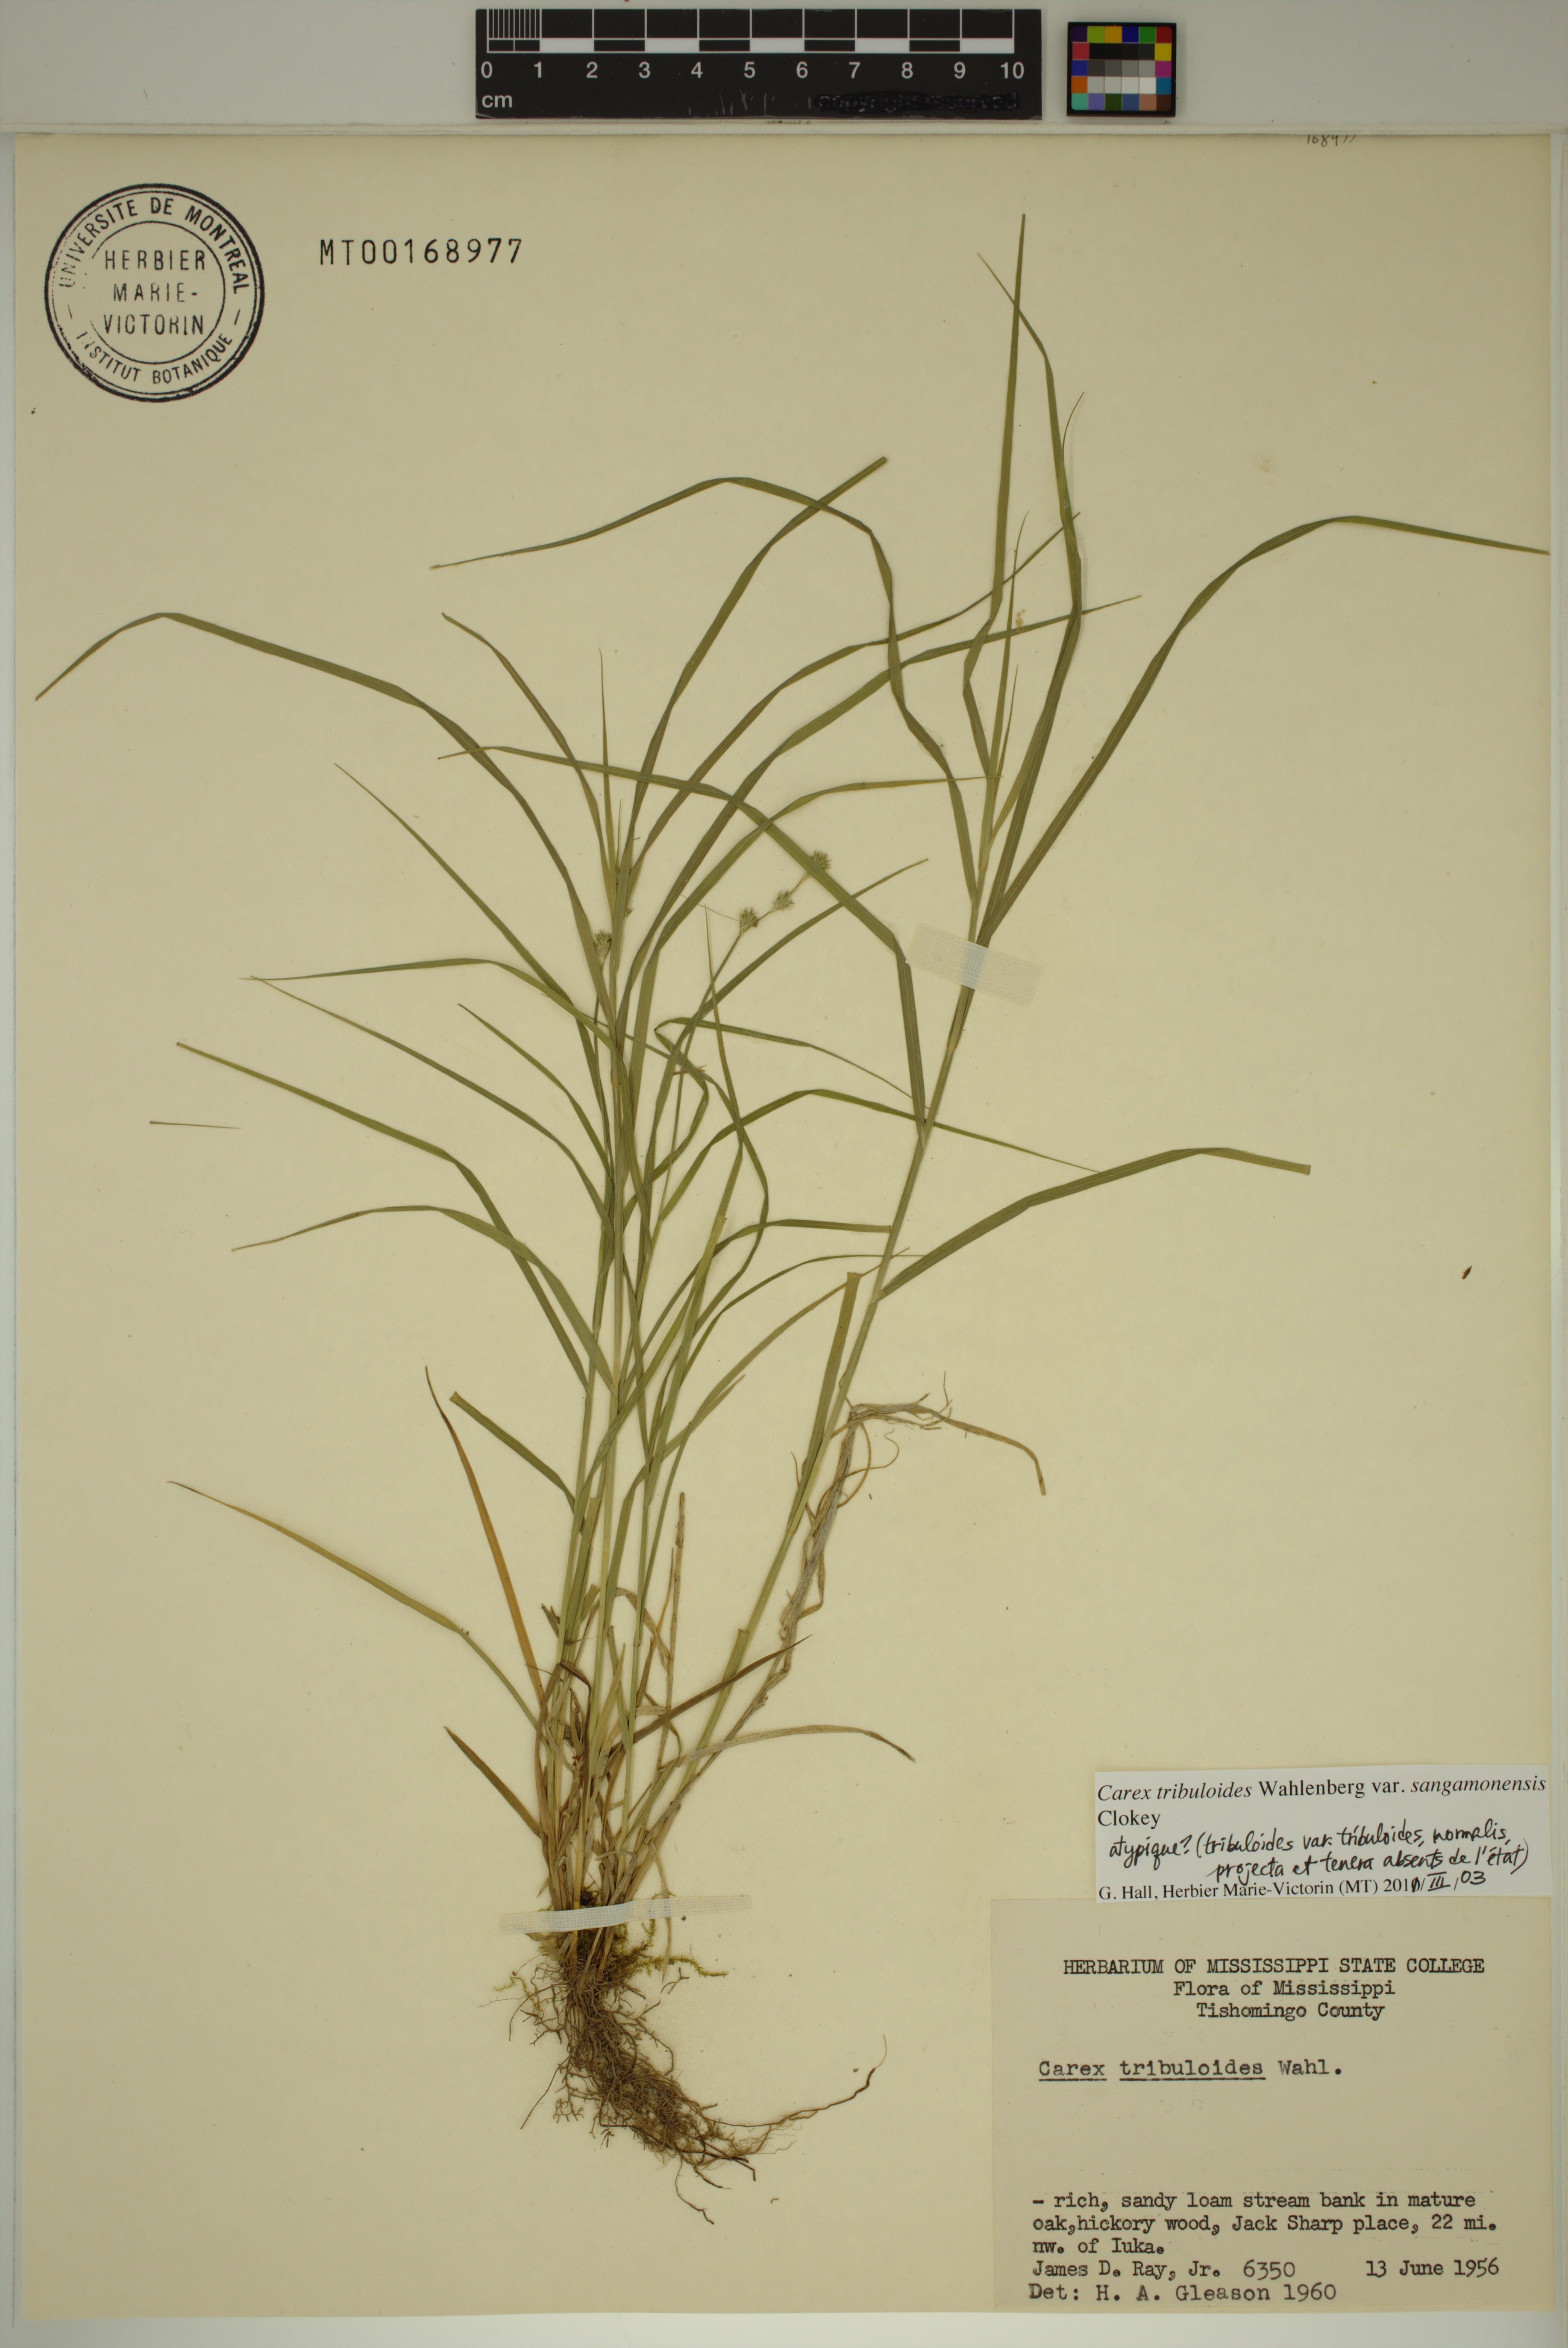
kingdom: Plantae
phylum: Tracheophyta
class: Liliopsida
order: Poales
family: Cyperaceae
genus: Carex
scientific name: Carex tribuloides
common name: Blunt broom sedge
